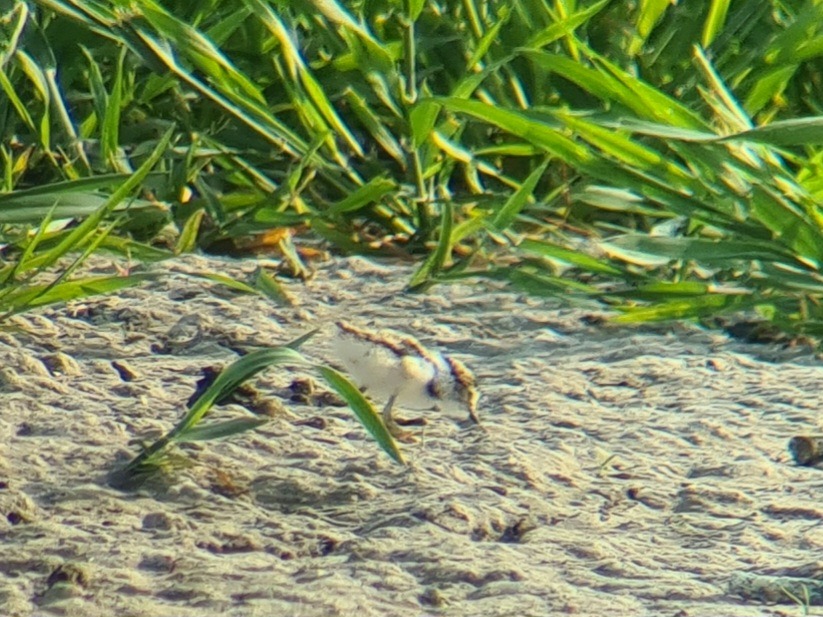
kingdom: Animalia
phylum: Chordata
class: Aves
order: Charadriiformes
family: Charadriidae
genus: Charadrius
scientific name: Charadrius dubius
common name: Lille præstekrave
